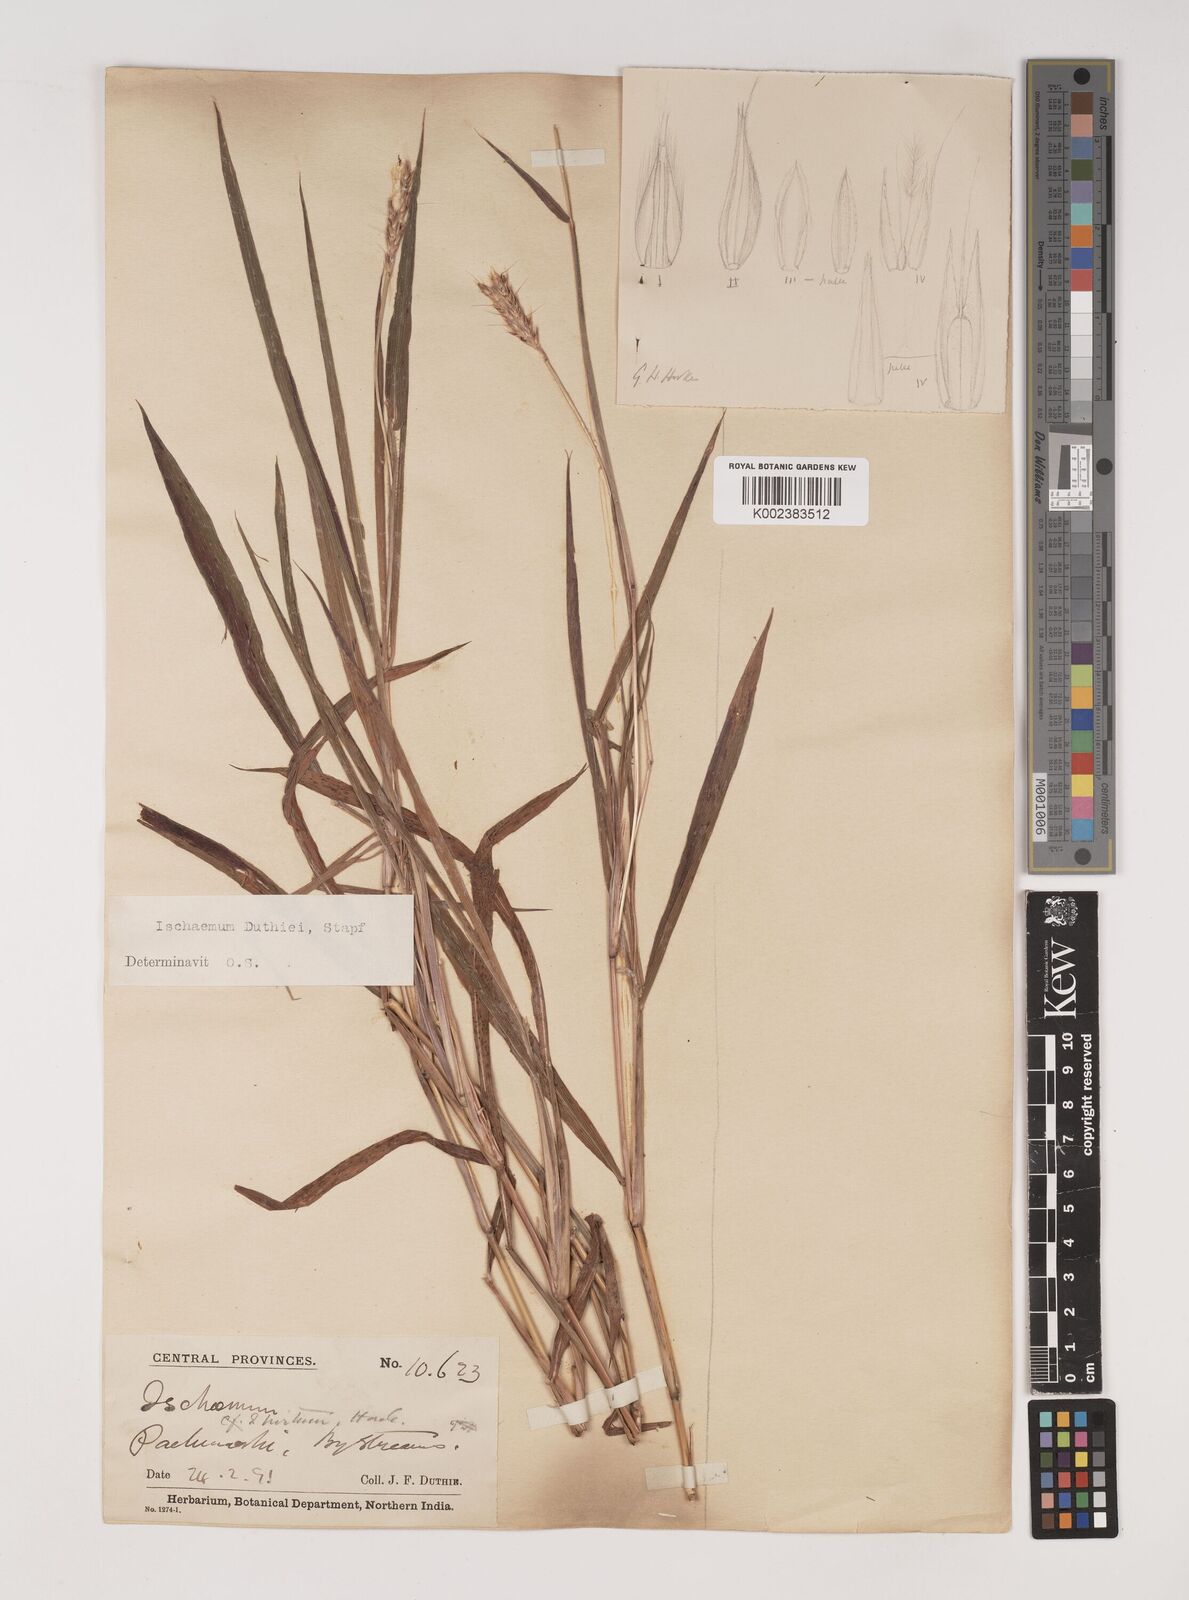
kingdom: Plantae
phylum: Tracheophyta
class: Liliopsida
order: Poales
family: Poaceae
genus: Ischaemum
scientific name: Ischaemum
